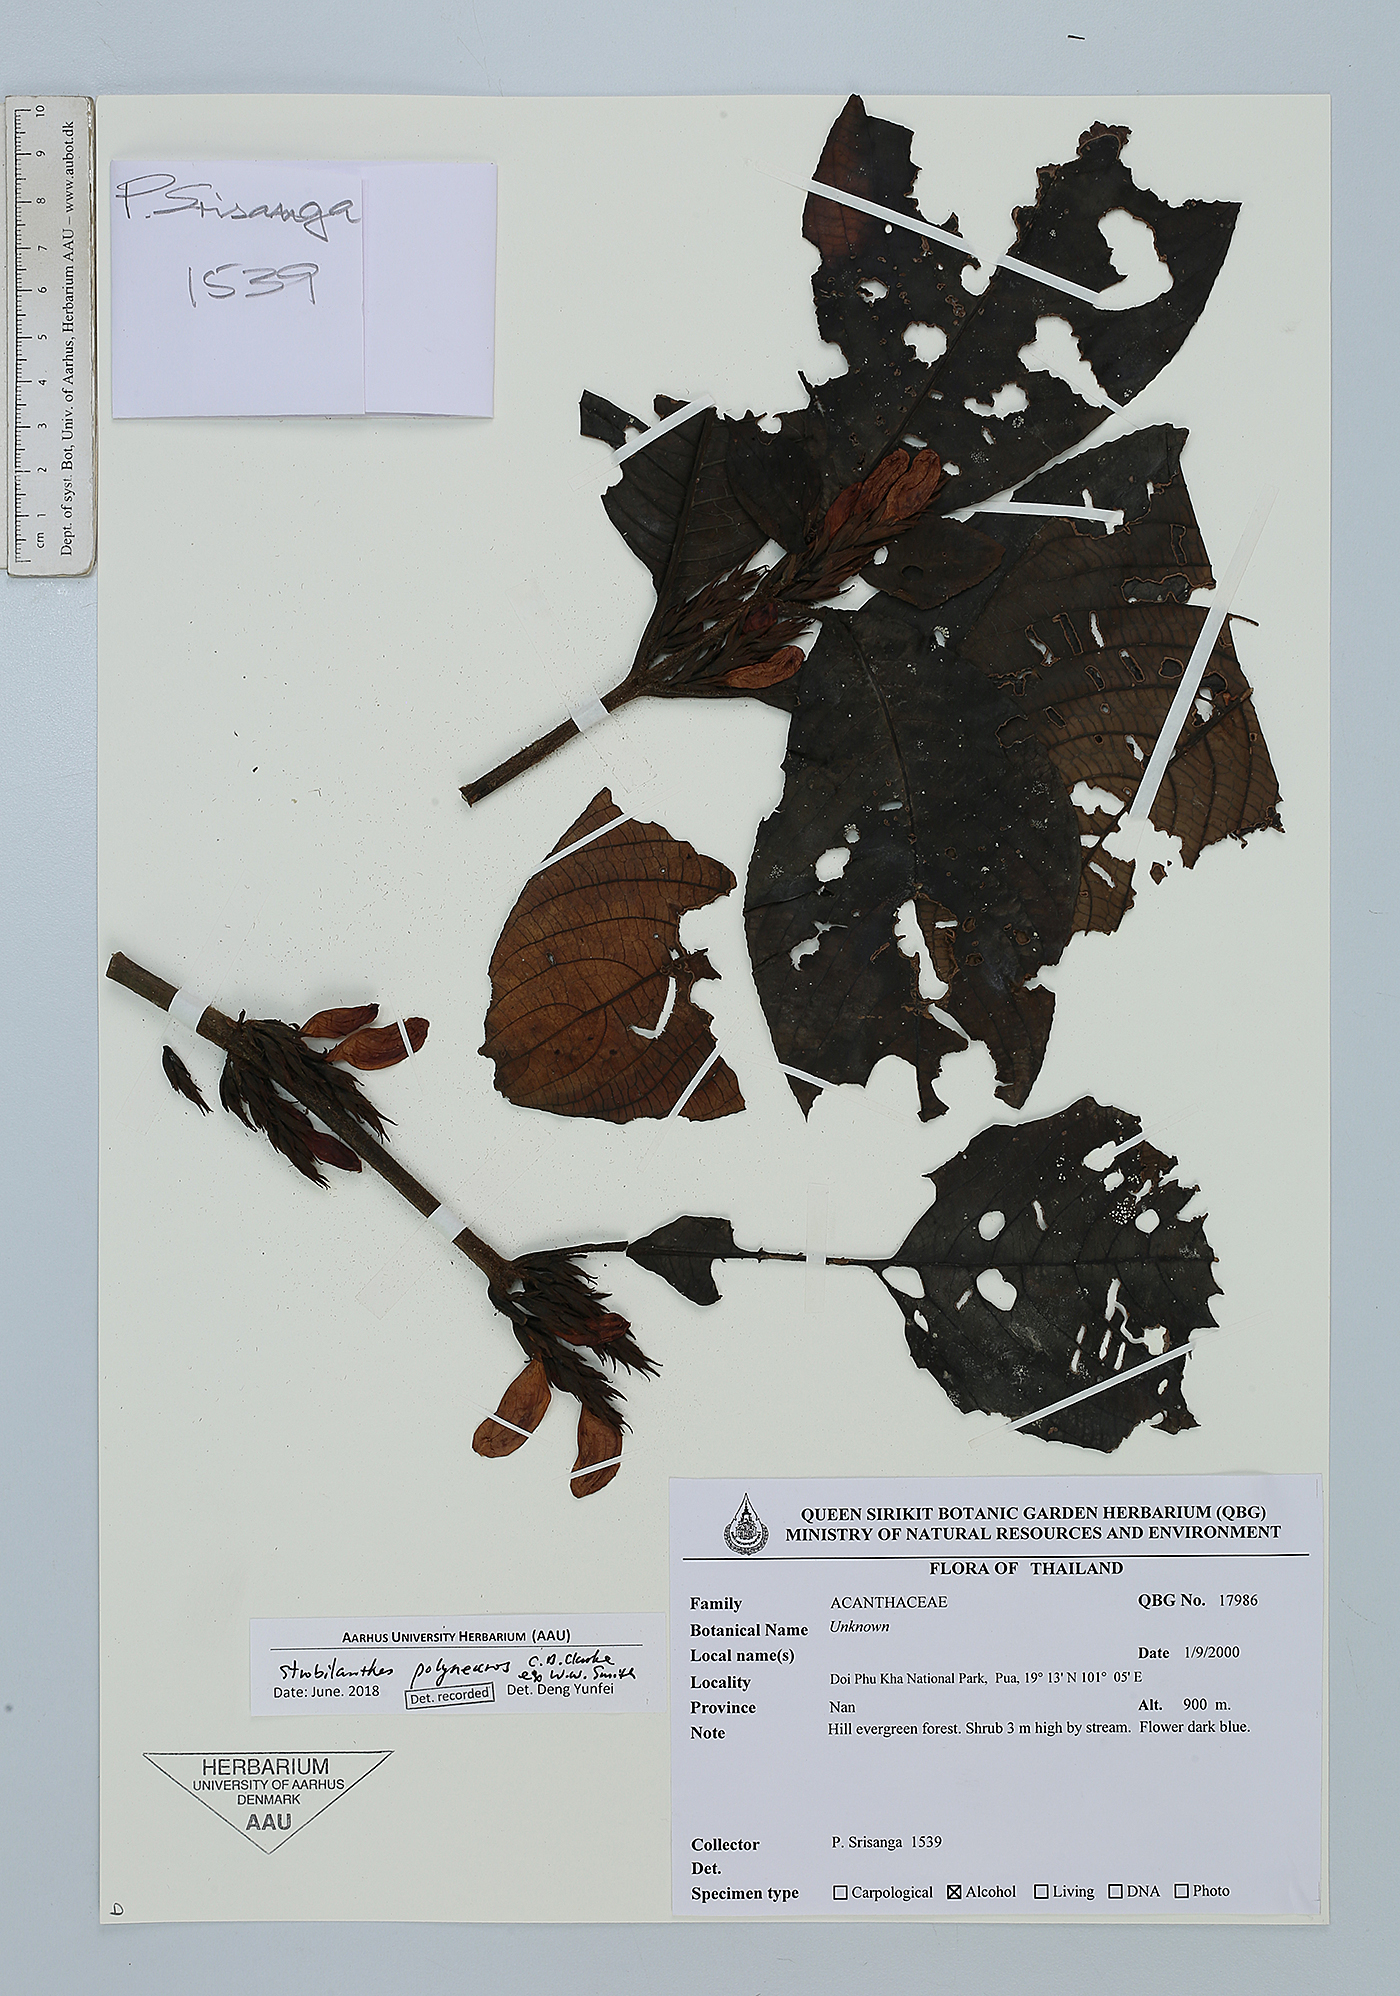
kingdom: Plantae
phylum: Tracheophyta
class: Magnoliopsida
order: Lamiales
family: Acanthaceae
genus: Strobilanthes
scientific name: Strobilanthes polyneuros
